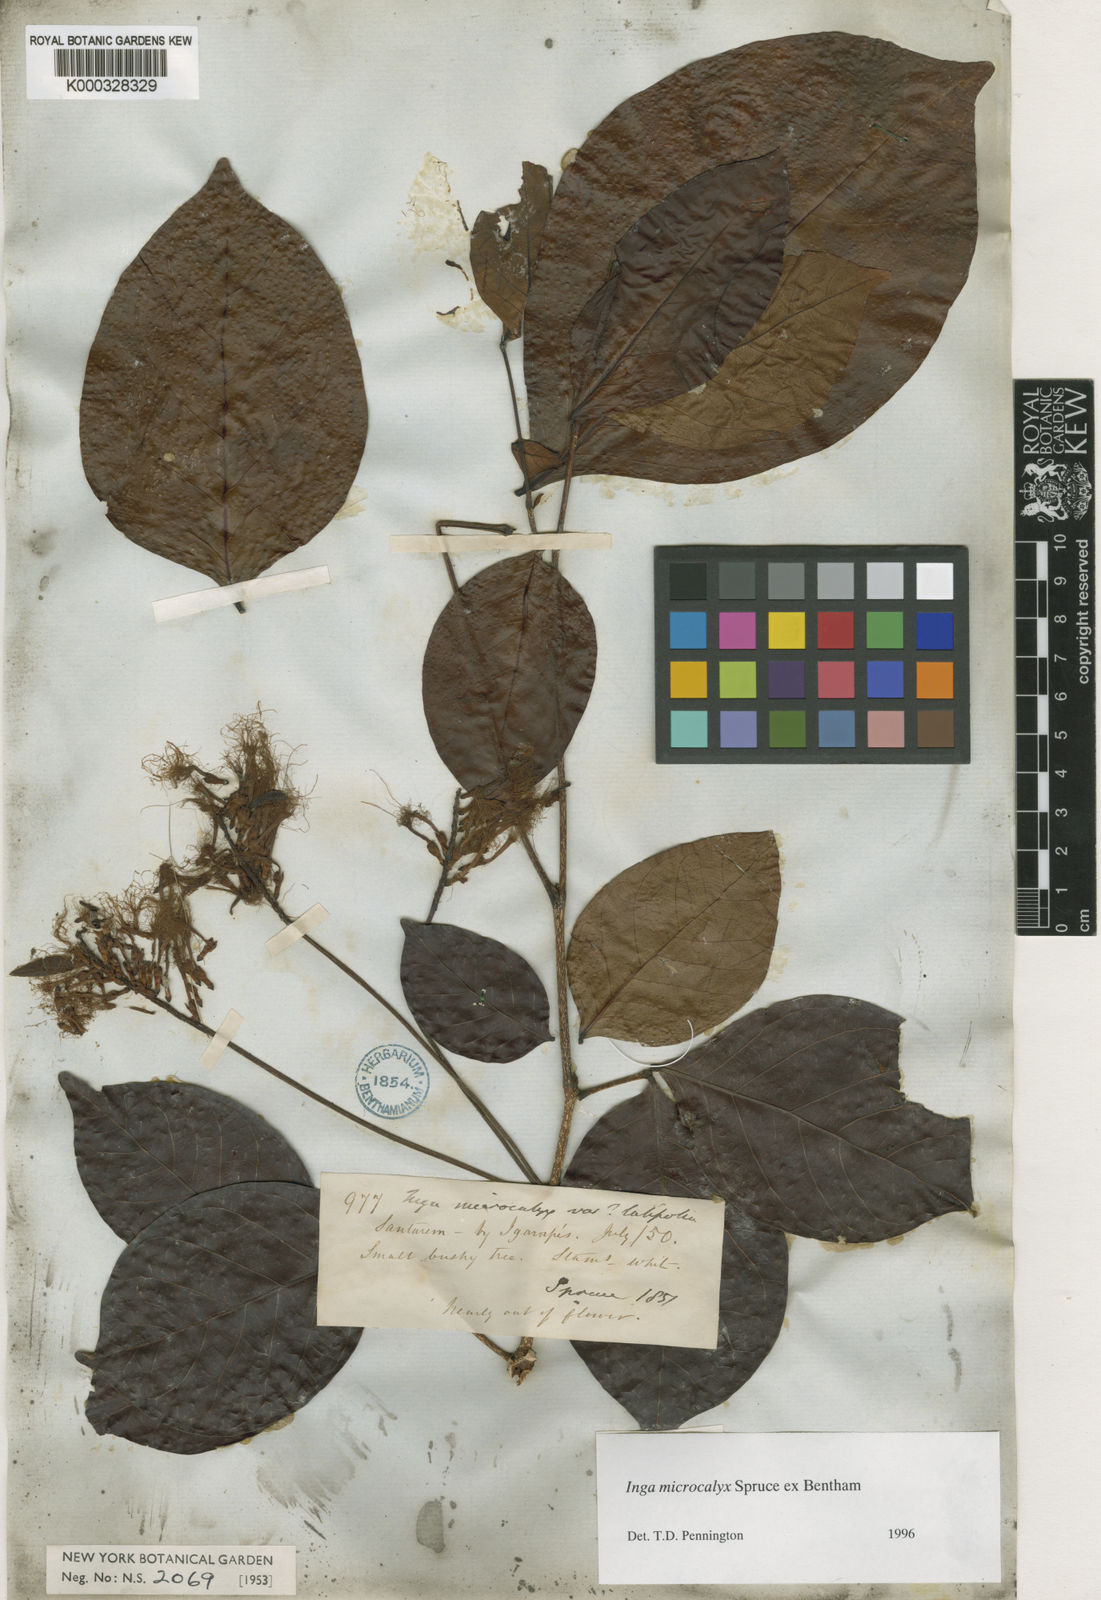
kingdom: Plantae
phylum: Tracheophyta
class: Magnoliopsida
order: Fabales
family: Fabaceae
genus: Inga
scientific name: Inga microcalyx
